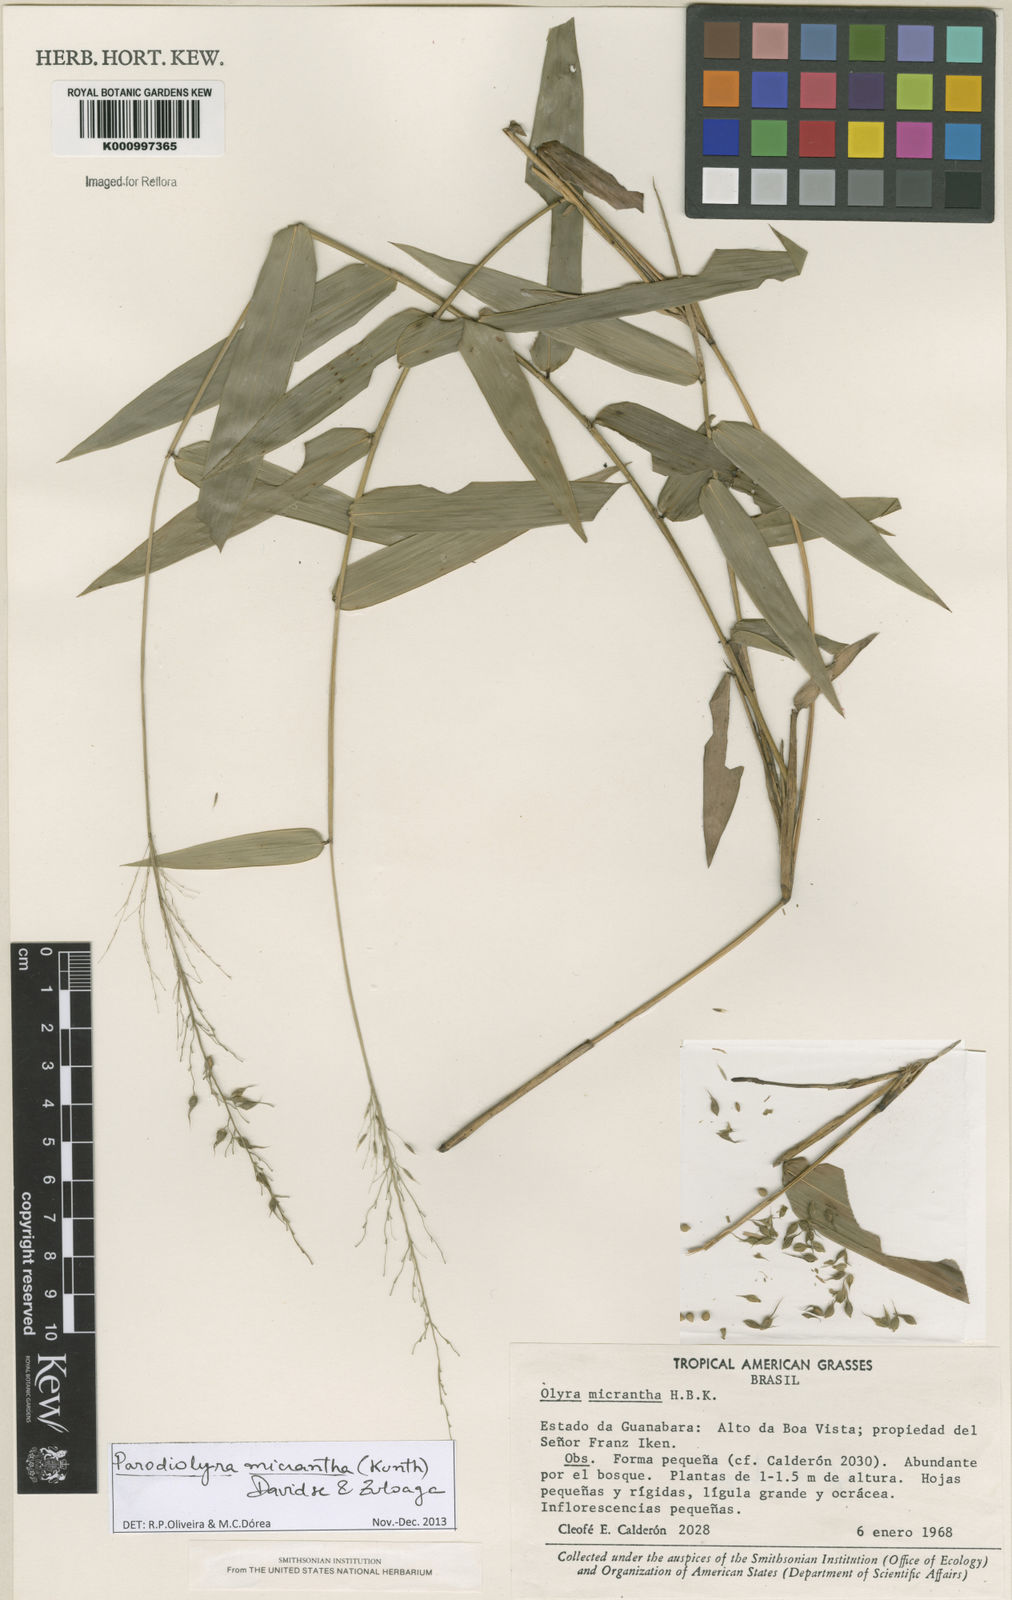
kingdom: Plantae
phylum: Tracheophyta
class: Liliopsida
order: Poales
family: Poaceae
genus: Taquara
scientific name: Taquara micrantha
